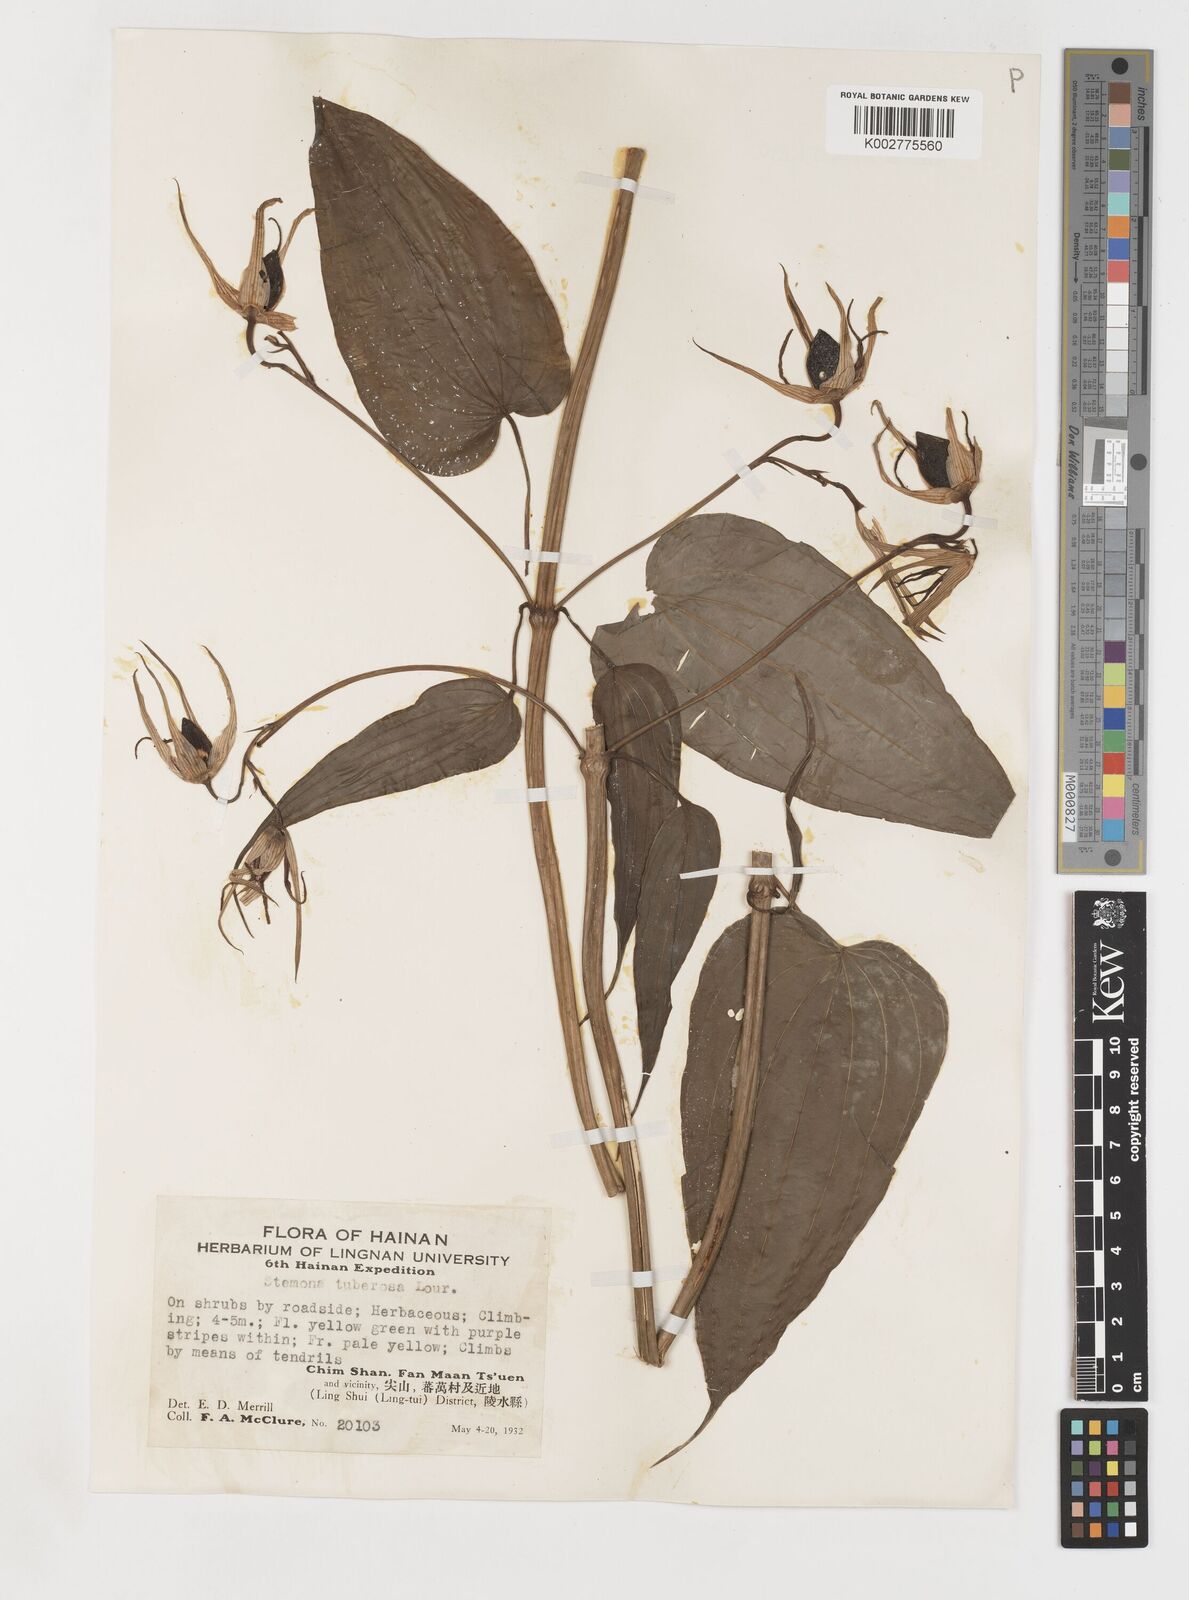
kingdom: Plantae
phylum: Tracheophyta
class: Liliopsida
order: Pandanales
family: Stemonaceae
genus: Stemona
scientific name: Stemona tuberosa
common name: Stemona
